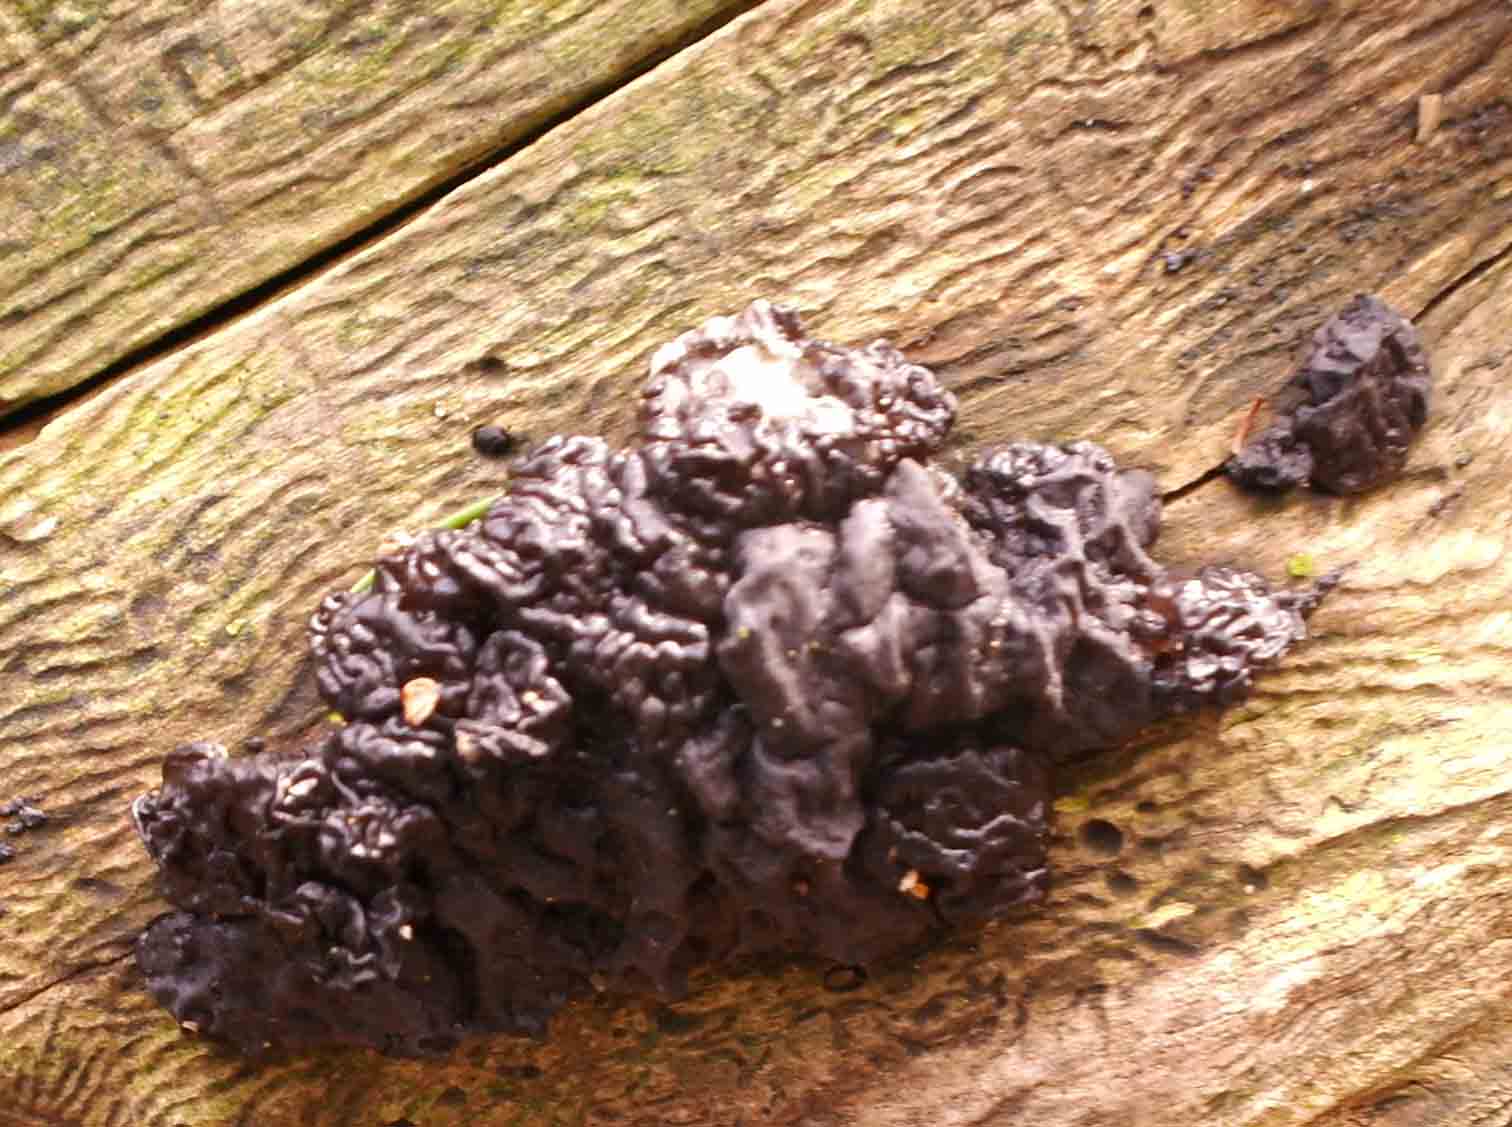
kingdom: Fungi
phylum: Basidiomycota
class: Agaricomycetes
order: Auriculariales
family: Auriculariaceae
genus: Exidia
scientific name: Exidia nigricans
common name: almindelig bævretop
